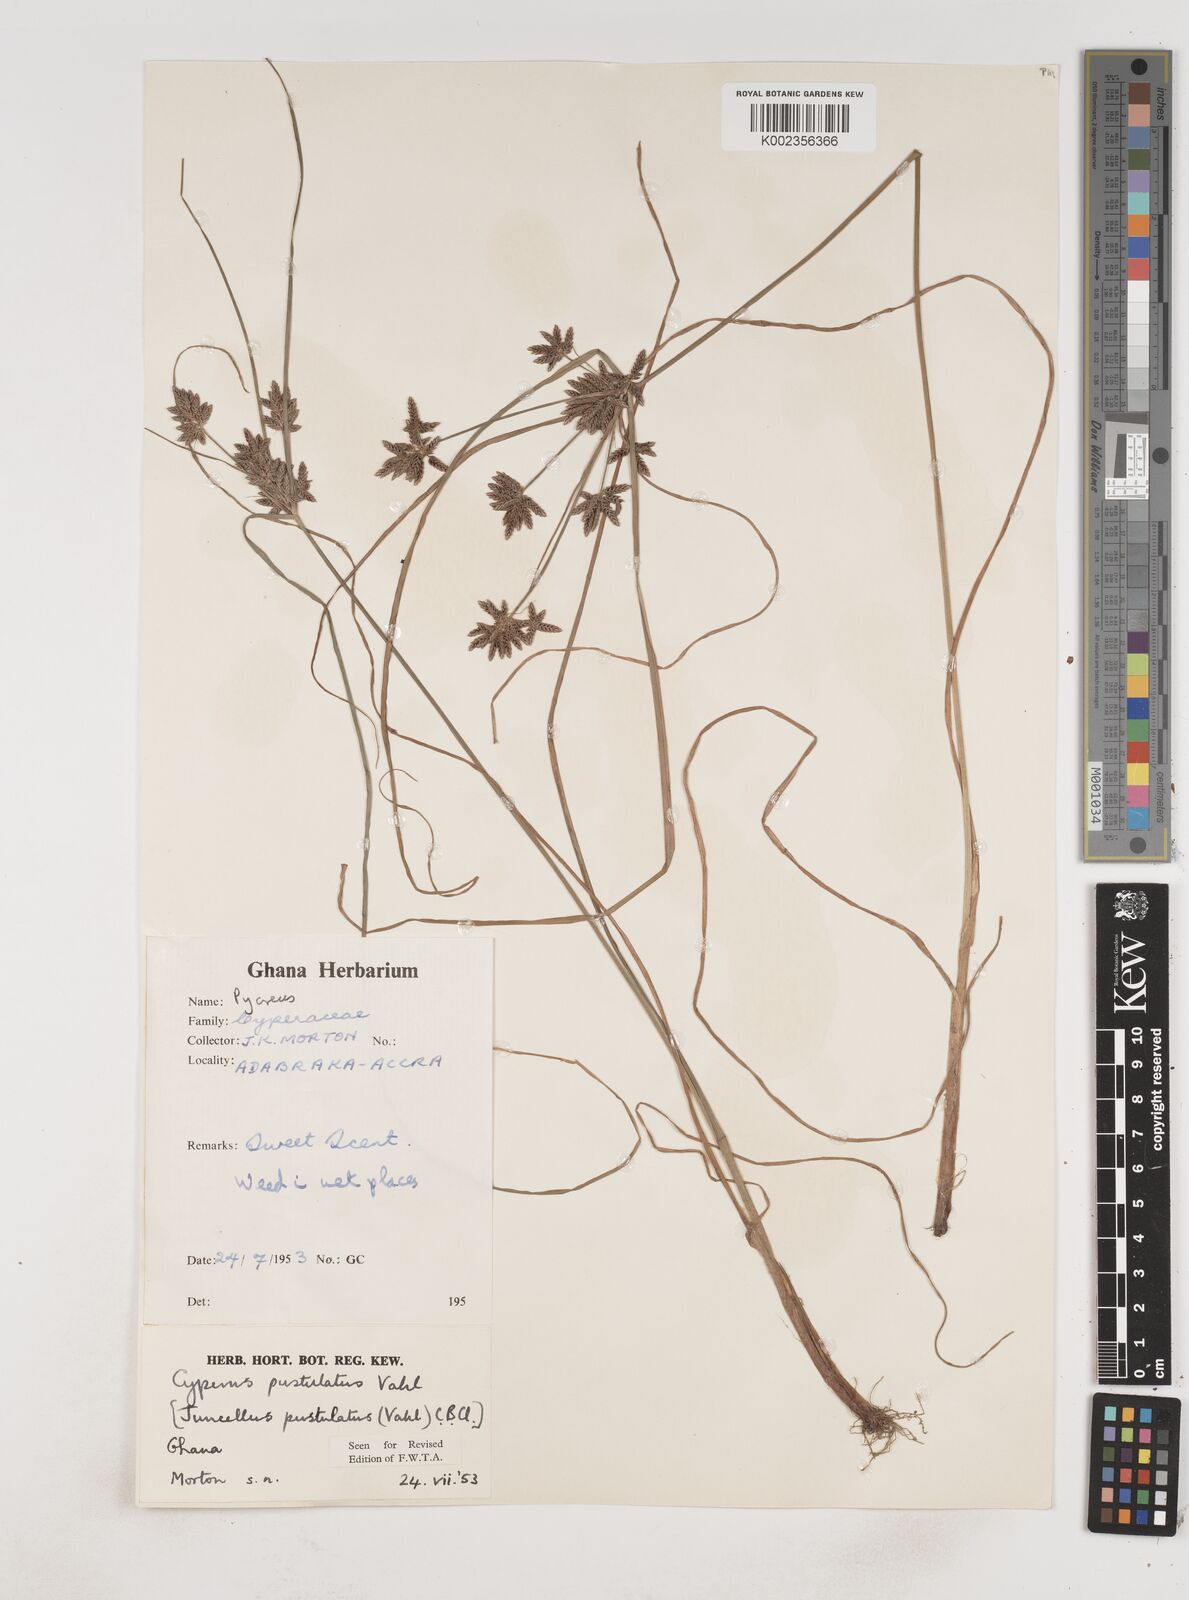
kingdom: Plantae
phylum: Tracheophyta
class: Liliopsida
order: Poales
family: Cyperaceae
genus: Cyperus
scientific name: Cyperus pustulatus
